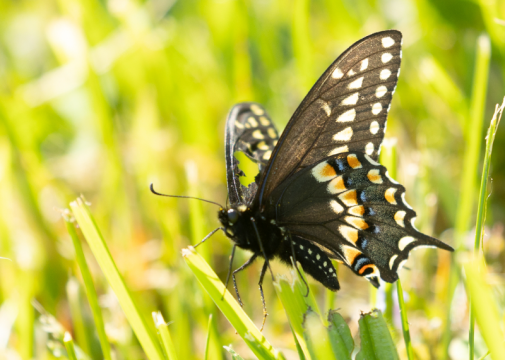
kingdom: Animalia
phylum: Arthropoda
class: Insecta
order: Lepidoptera
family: Papilionidae
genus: Papilio
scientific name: Papilio polyxenes
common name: Black Swallowtail
